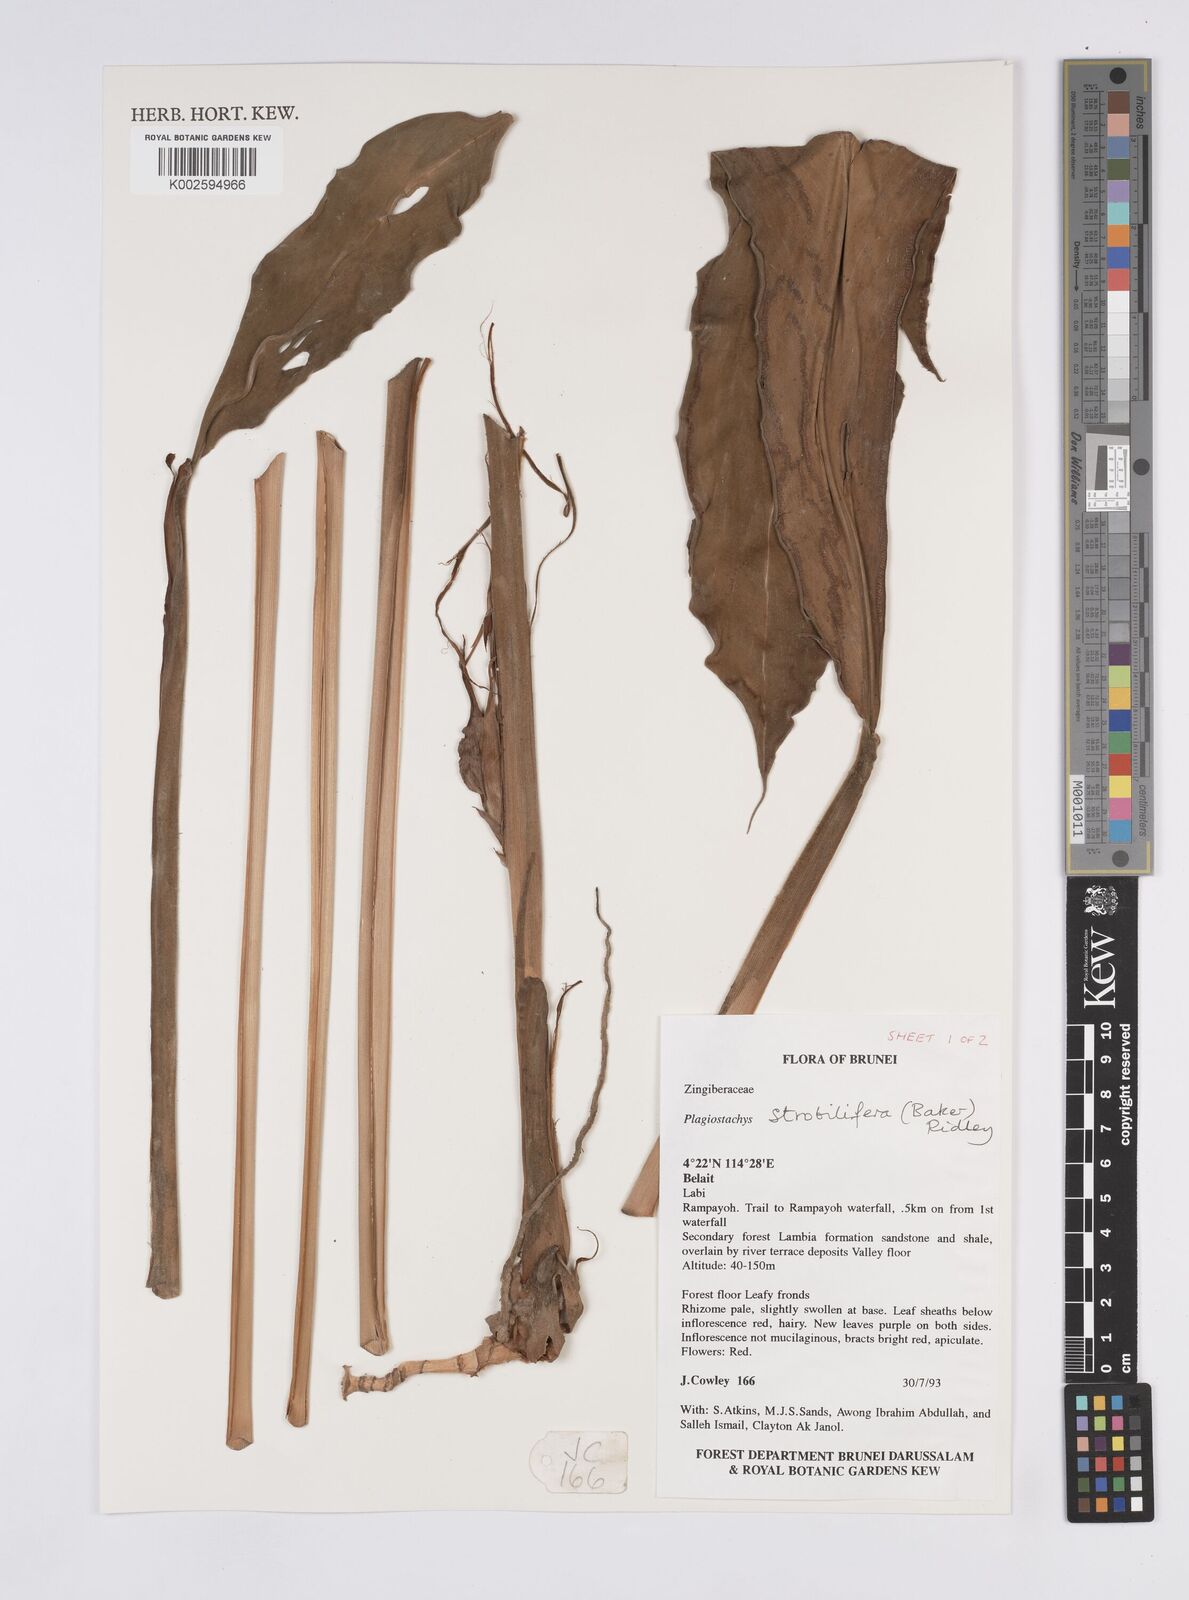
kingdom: Plantae
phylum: Tracheophyta
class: Liliopsida
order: Zingiberales
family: Zingiberaceae
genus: Plagiostachys
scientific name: Plagiostachys strobilifera
